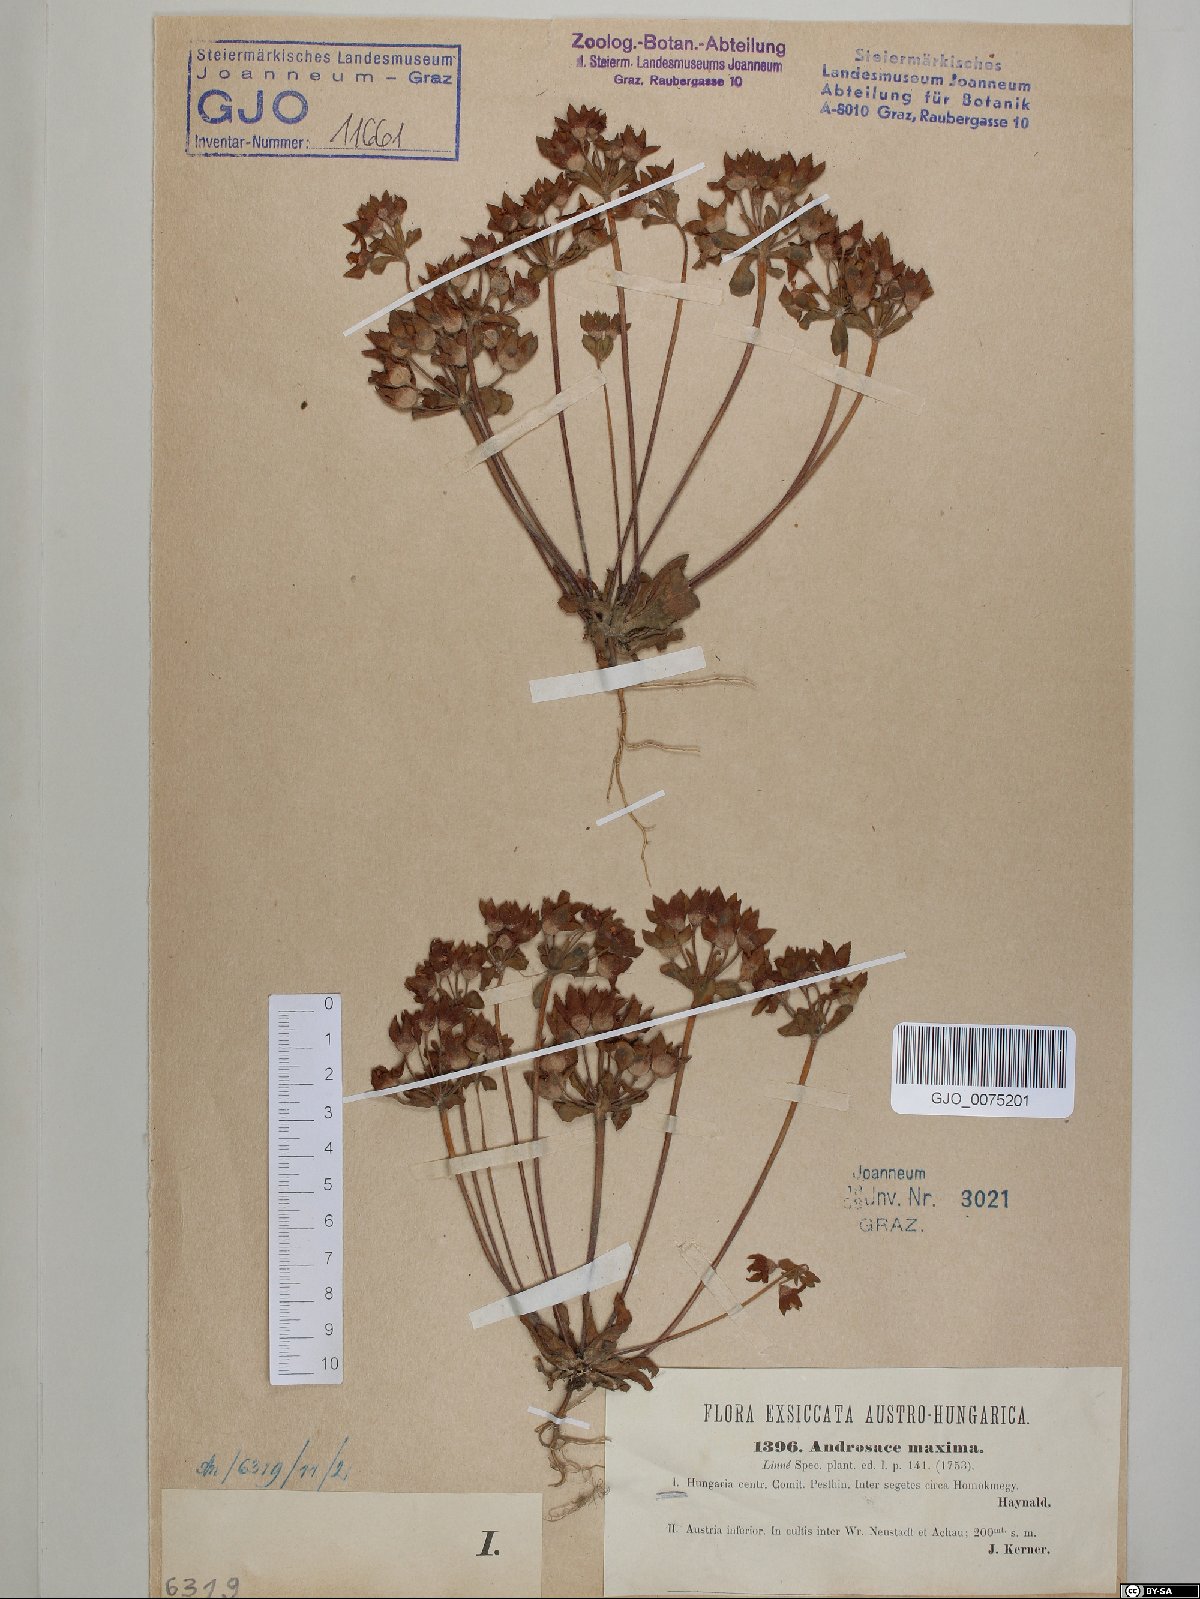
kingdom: Plantae
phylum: Tracheophyta
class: Magnoliopsida
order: Ericales
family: Primulaceae
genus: Androsace
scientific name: Androsace maxima
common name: Annual androsace
